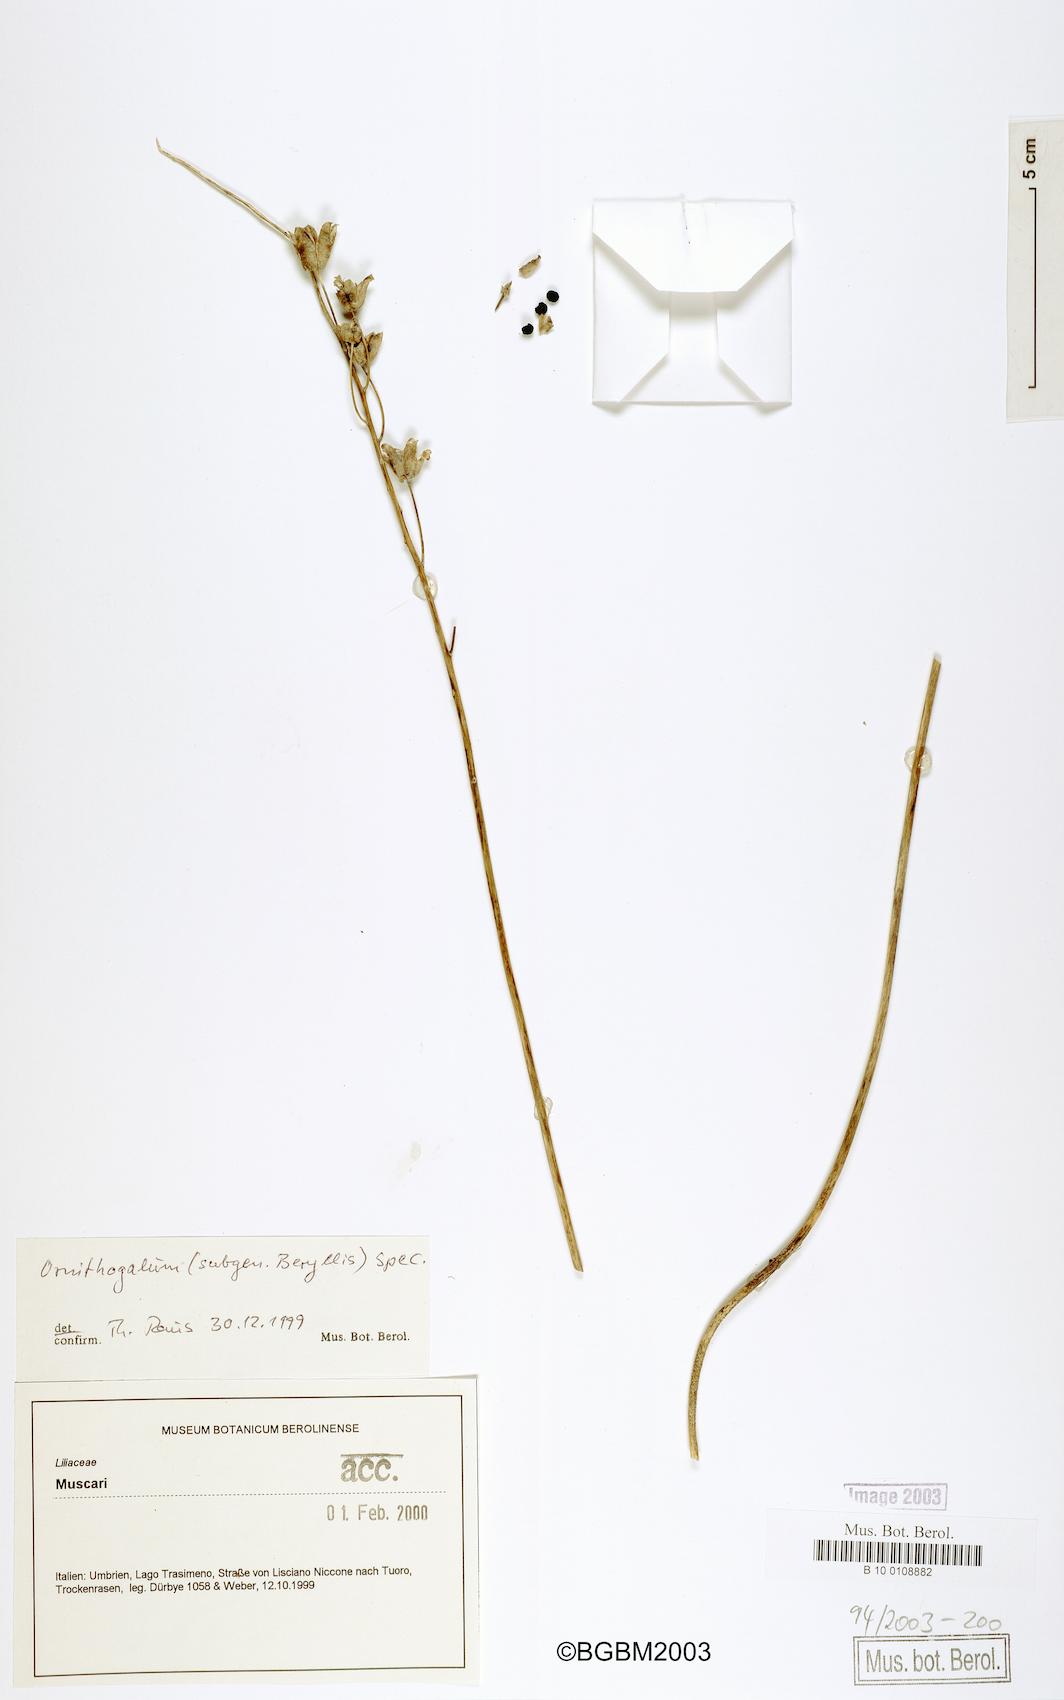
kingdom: Plantae
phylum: Tracheophyta
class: Liliopsida
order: Liliales
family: Liliaceae
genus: Ornithogalum
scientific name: Ornithogalum
